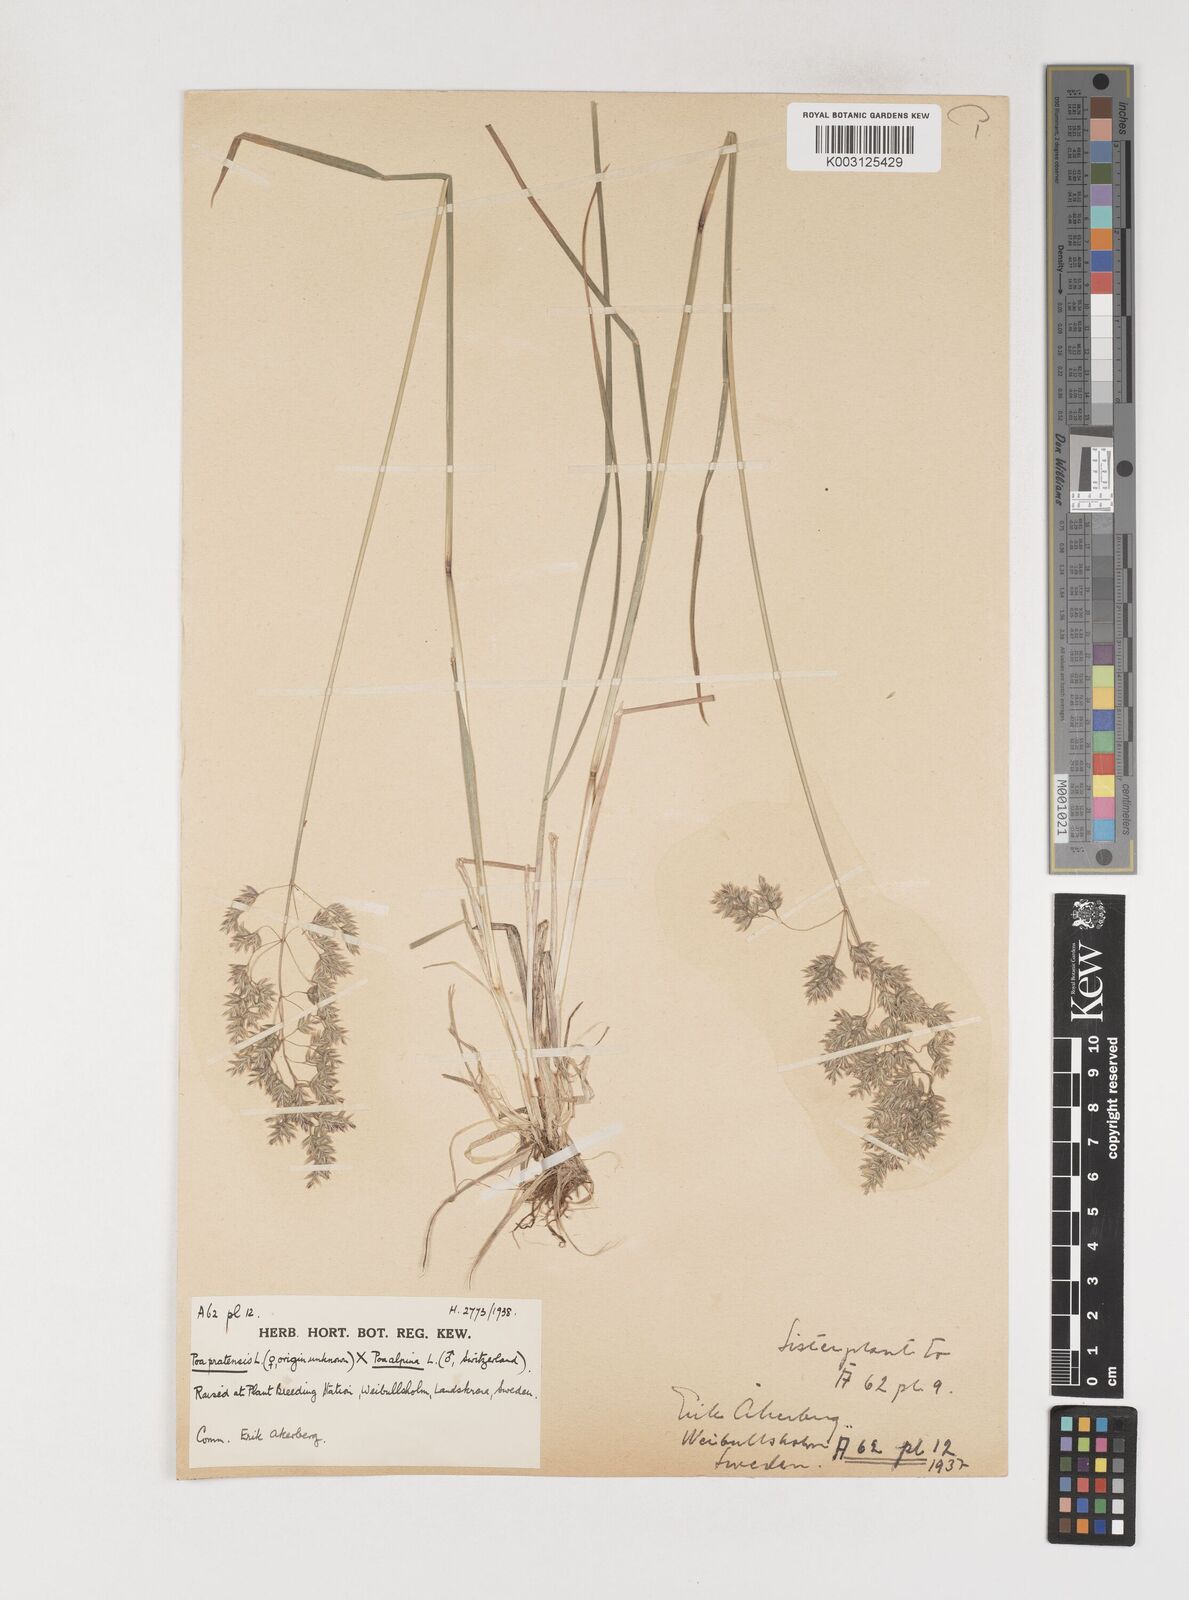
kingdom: Plantae
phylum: Tracheophyta
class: Liliopsida
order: Poales
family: Poaceae
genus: Poa
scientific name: Poa
